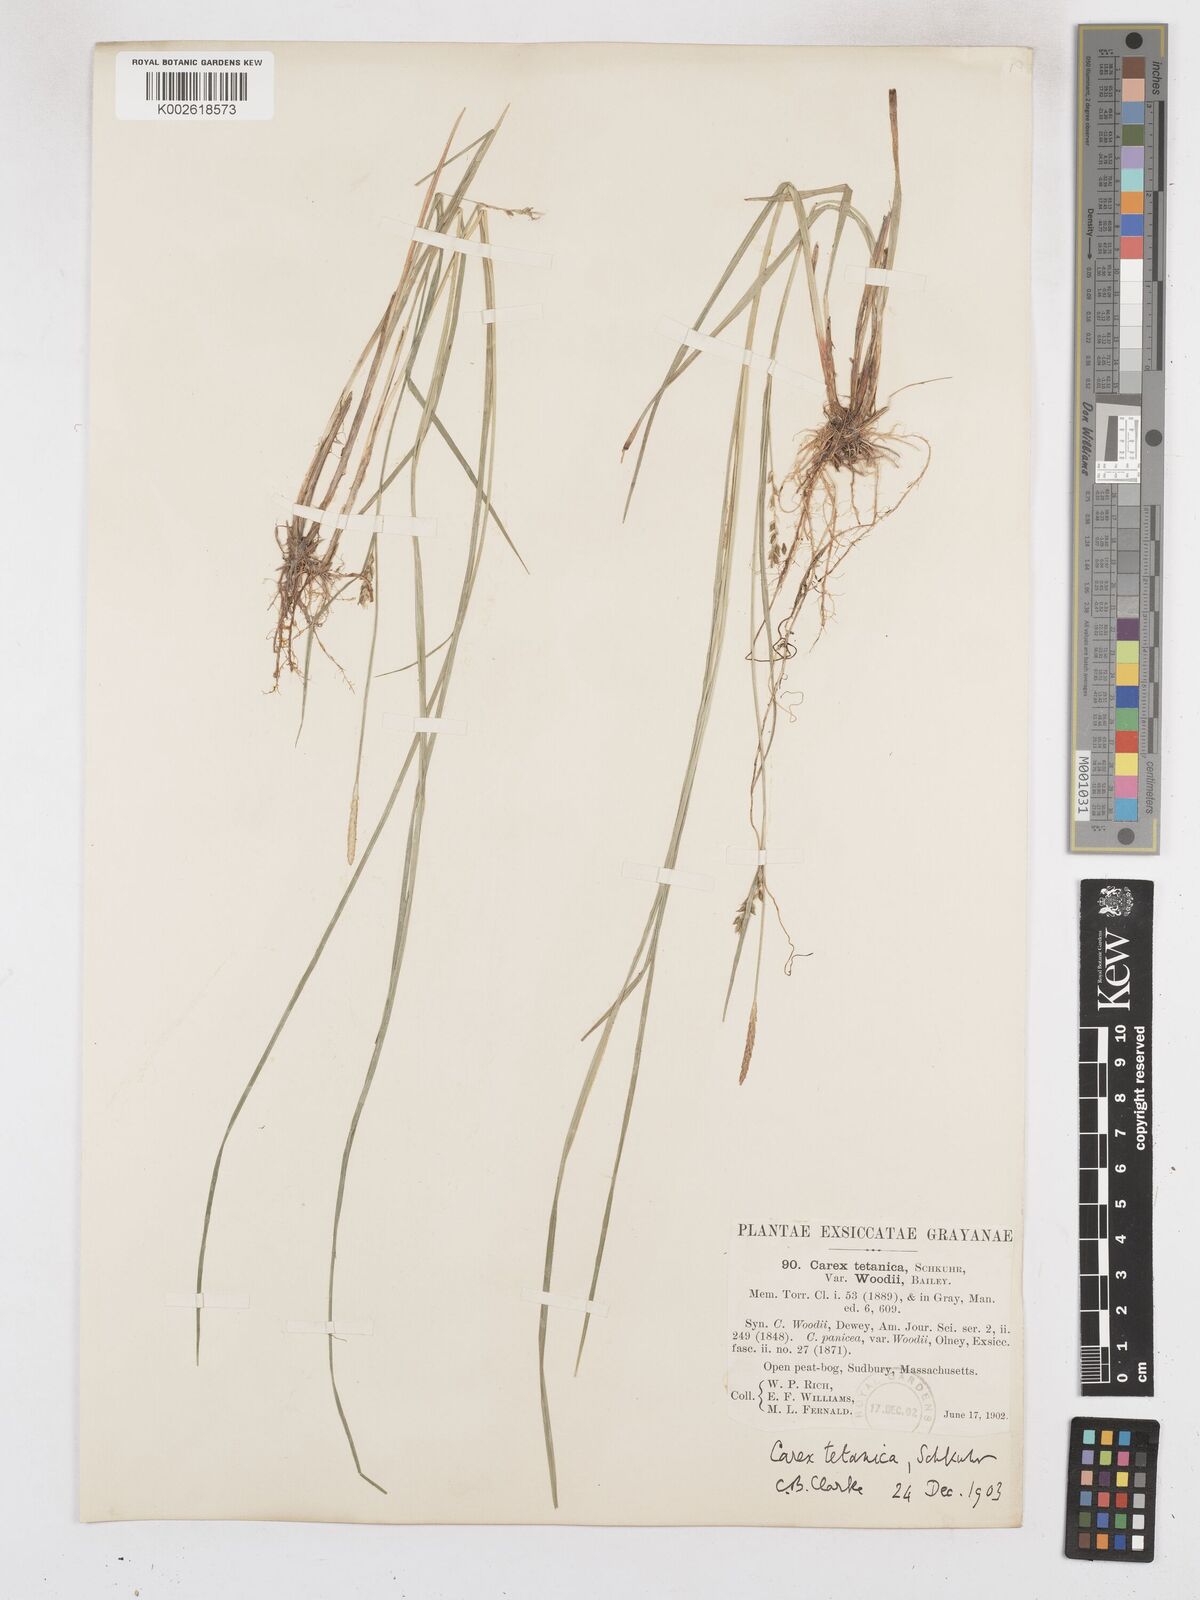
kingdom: Plantae
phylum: Tracheophyta
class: Liliopsida
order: Poales
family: Cyperaceae
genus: Carex
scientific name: Carex woodii
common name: Wood's sedge
